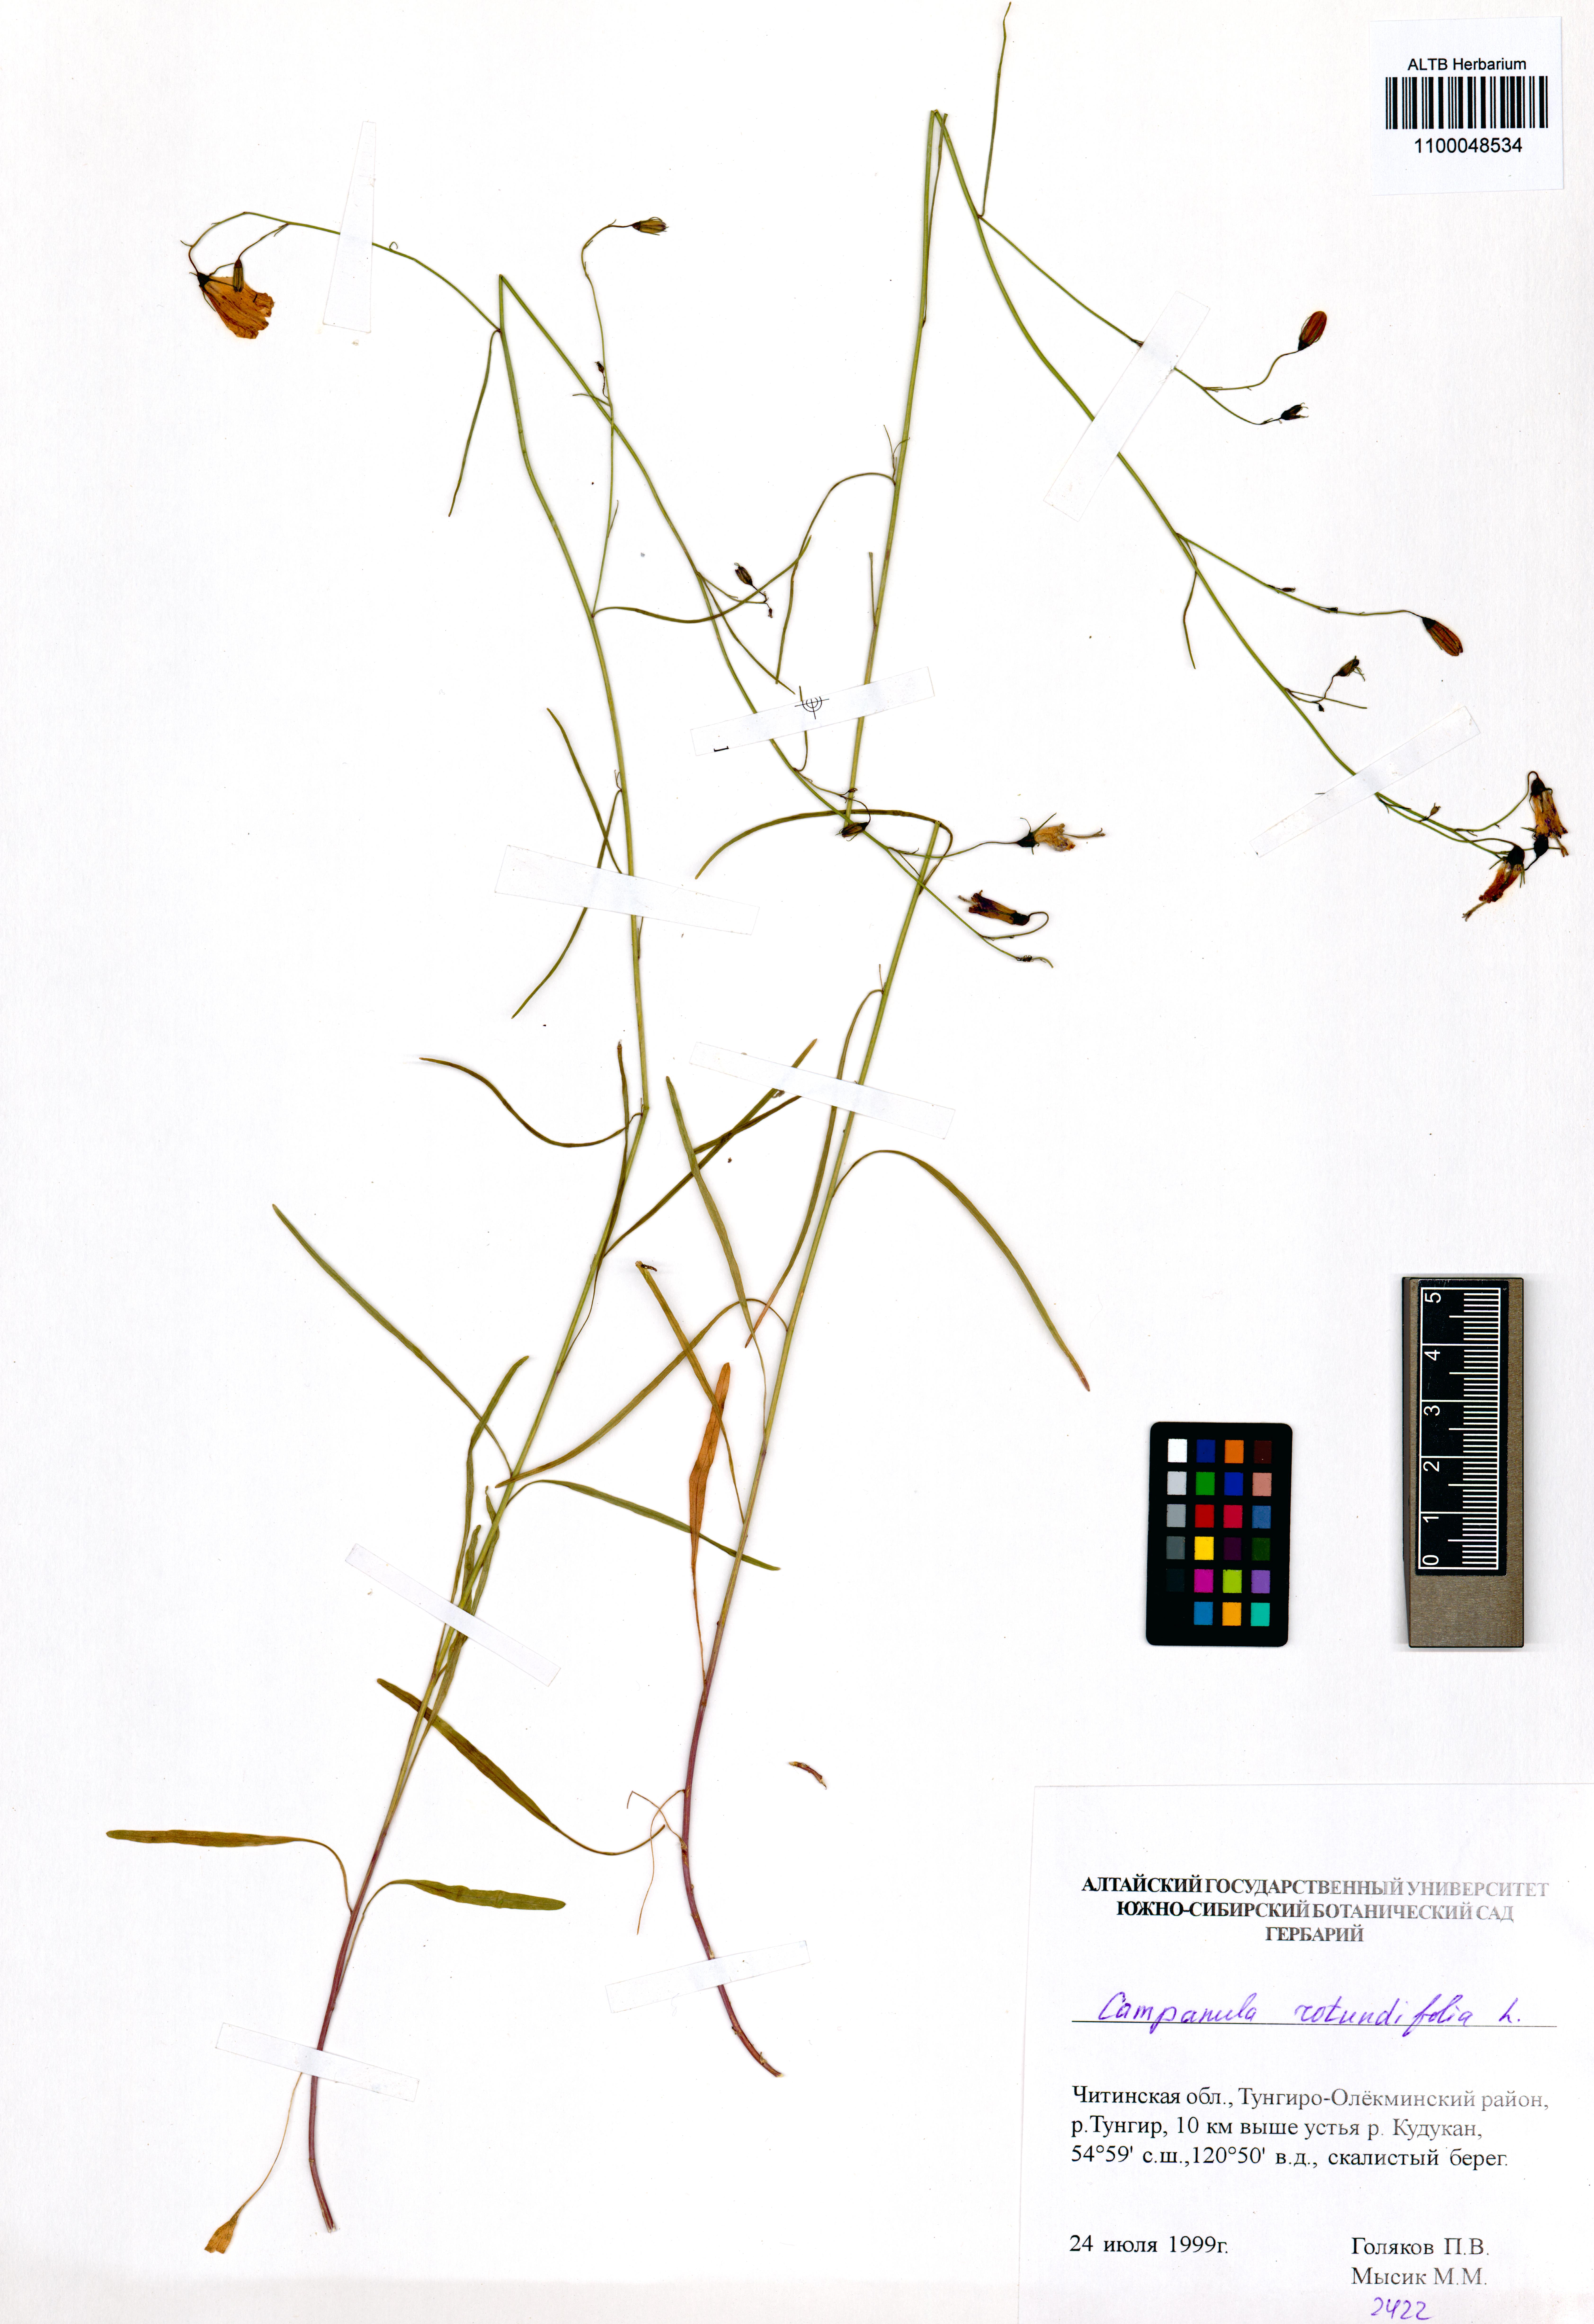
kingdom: Plantae
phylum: Tracheophyta
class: Magnoliopsida
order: Asterales
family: Campanulaceae
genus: Campanula
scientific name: Campanula rotundifolia
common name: Harebell
